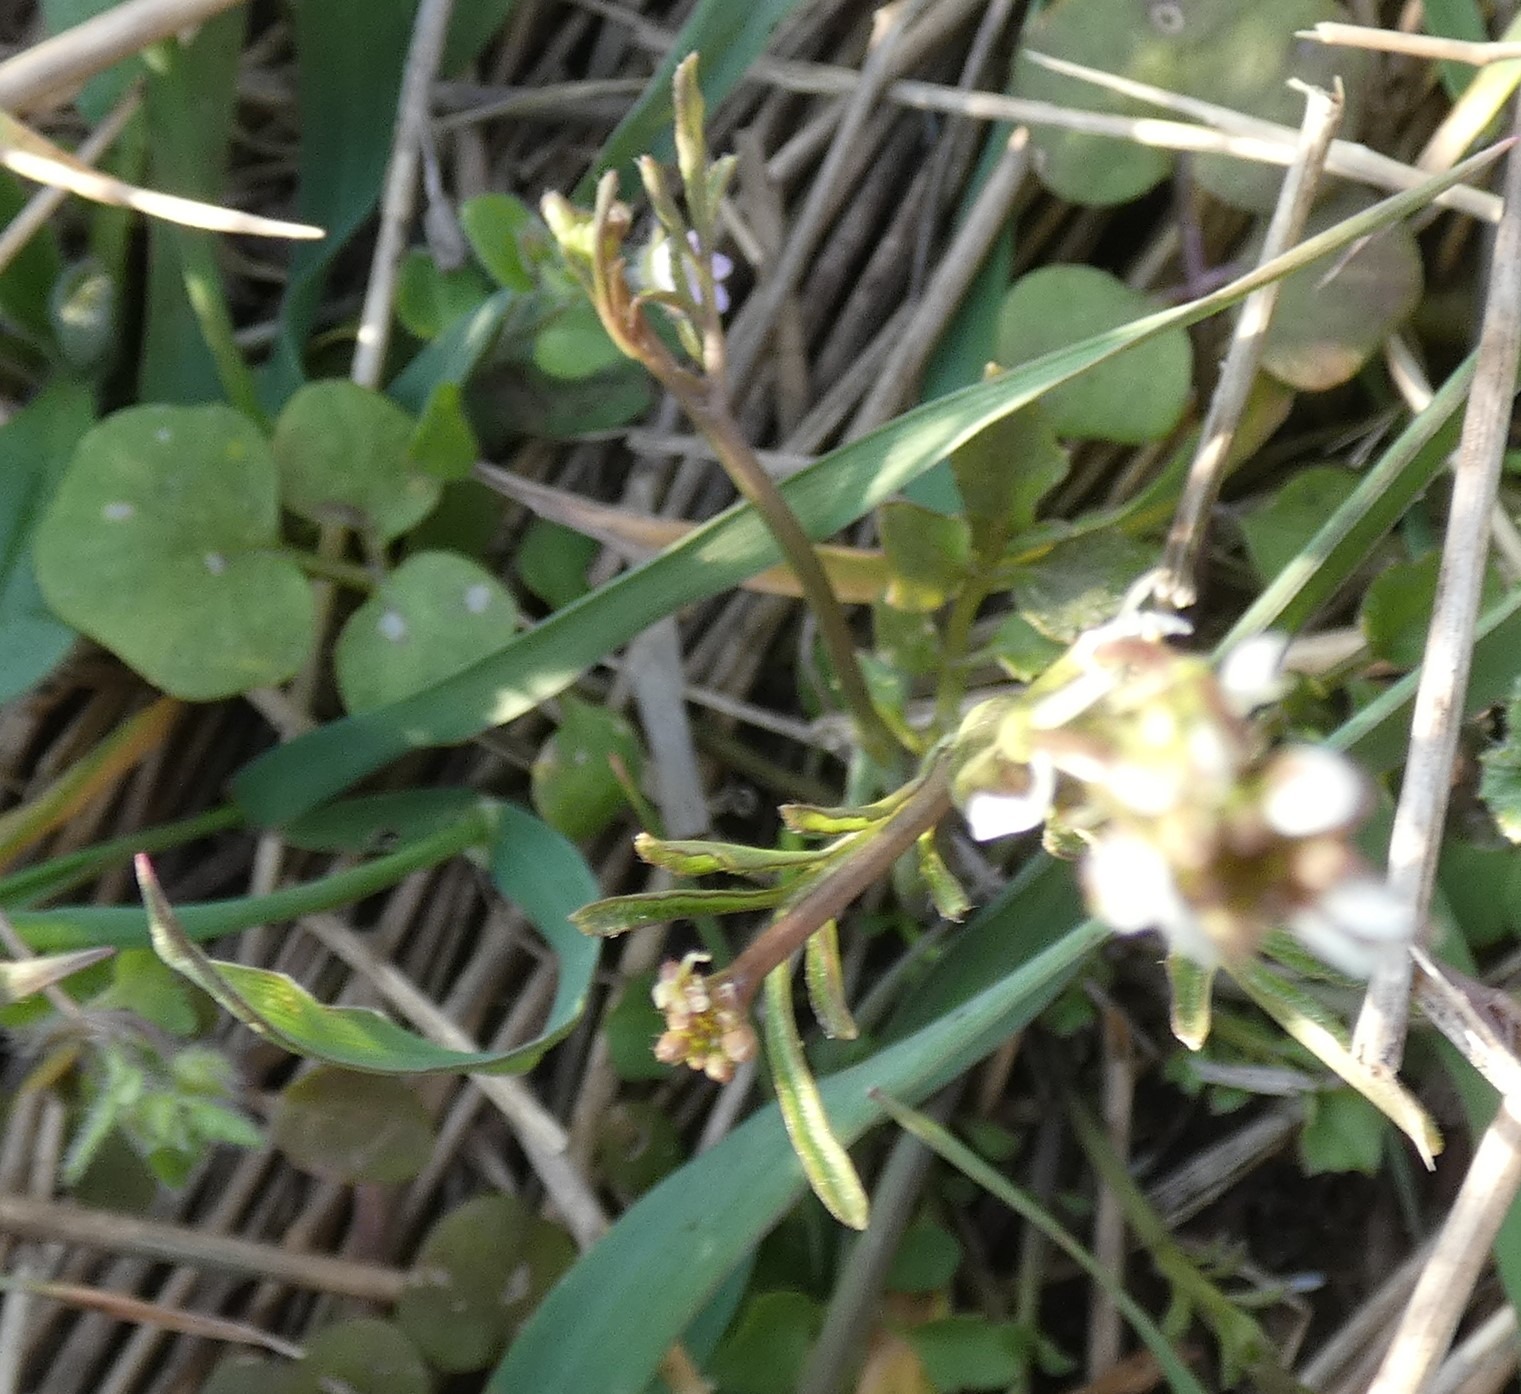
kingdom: Plantae
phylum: Tracheophyta
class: Magnoliopsida
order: Brassicales
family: Brassicaceae
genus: Cardamine
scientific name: Cardamine hirsuta
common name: Roset-springklap
